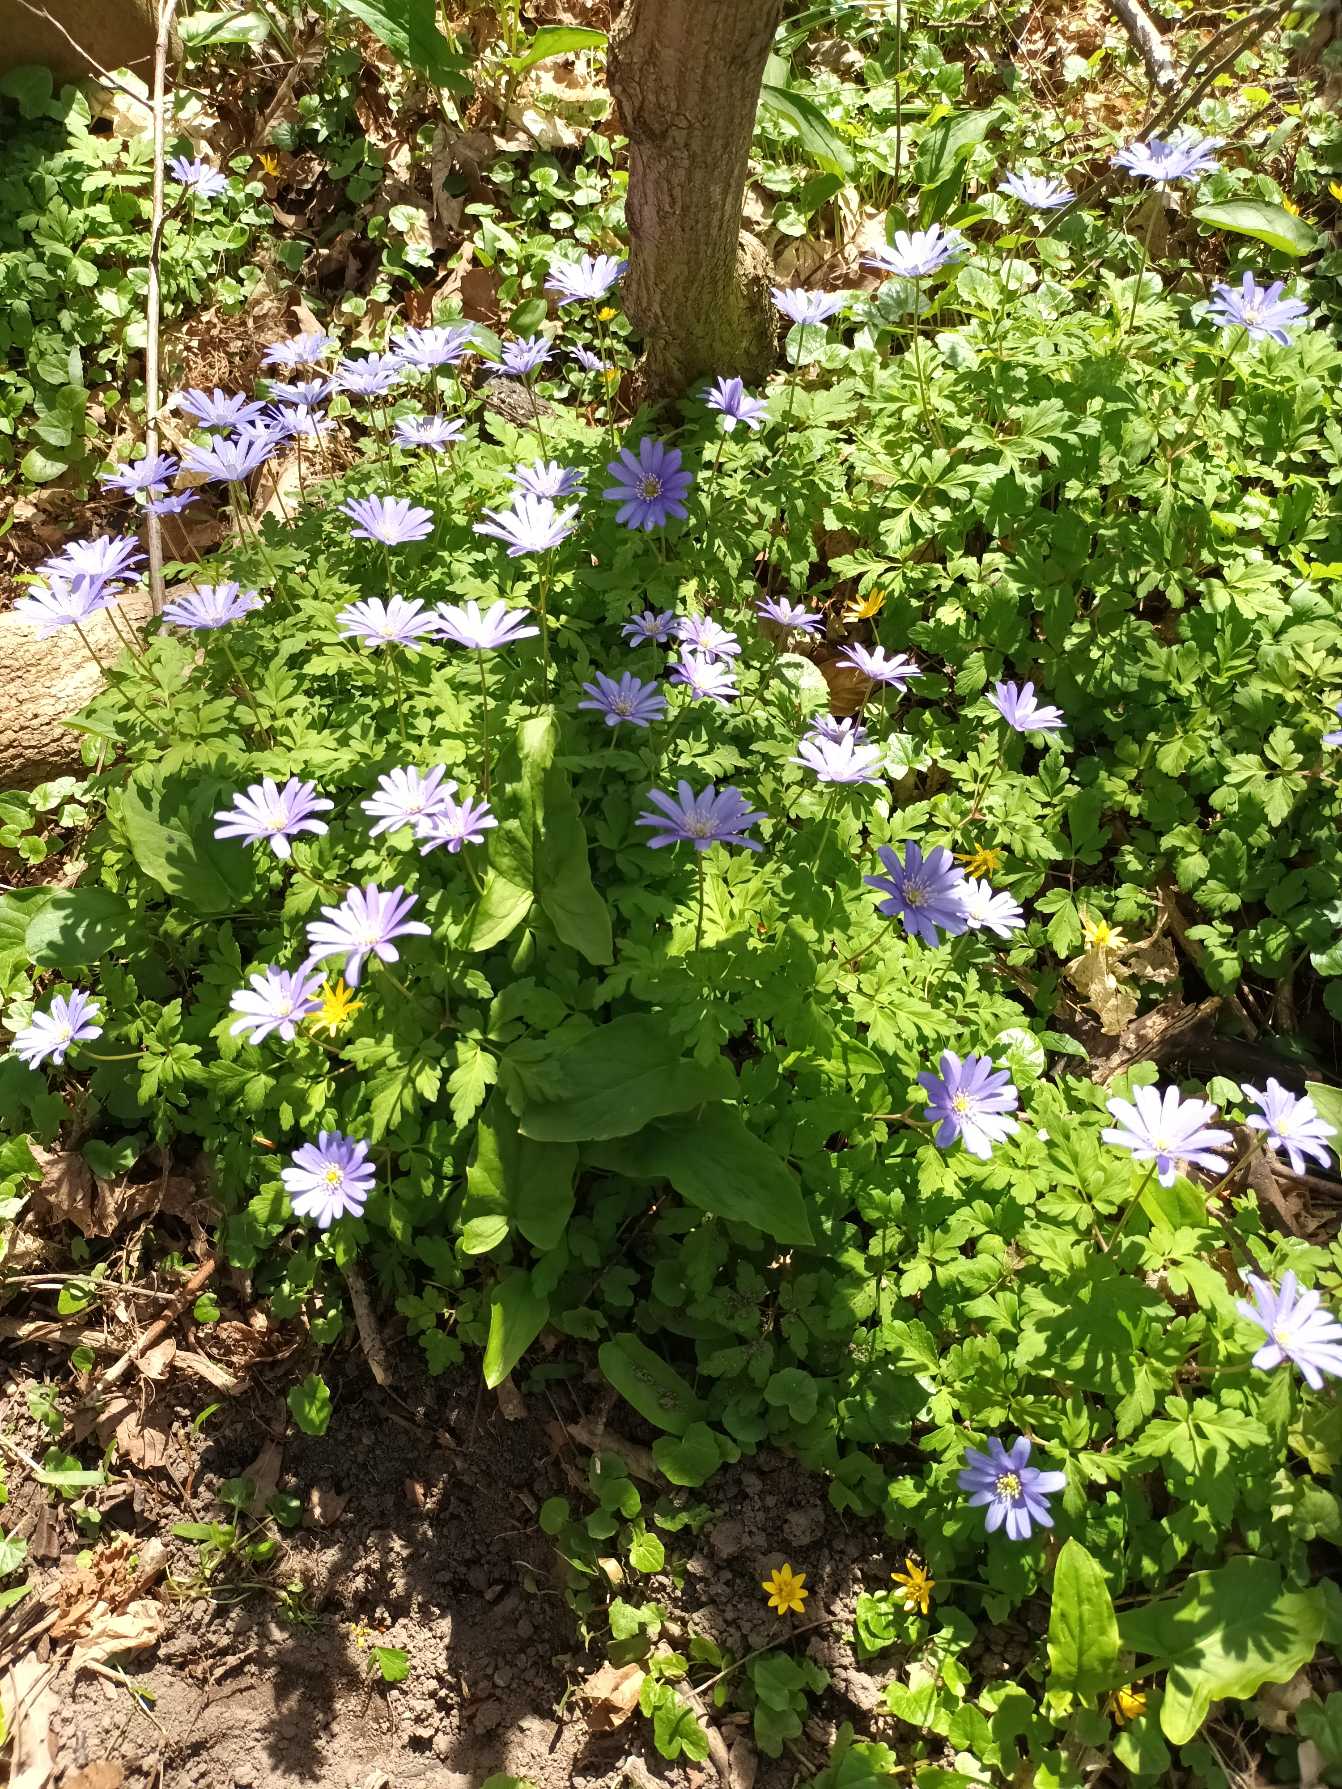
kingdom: Plantae
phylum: Tracheophyta
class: Magnoliopsida
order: Ranunculales
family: Ranunculaceae
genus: Anemone
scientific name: Anemone apennina
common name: Apenniner-anemone
